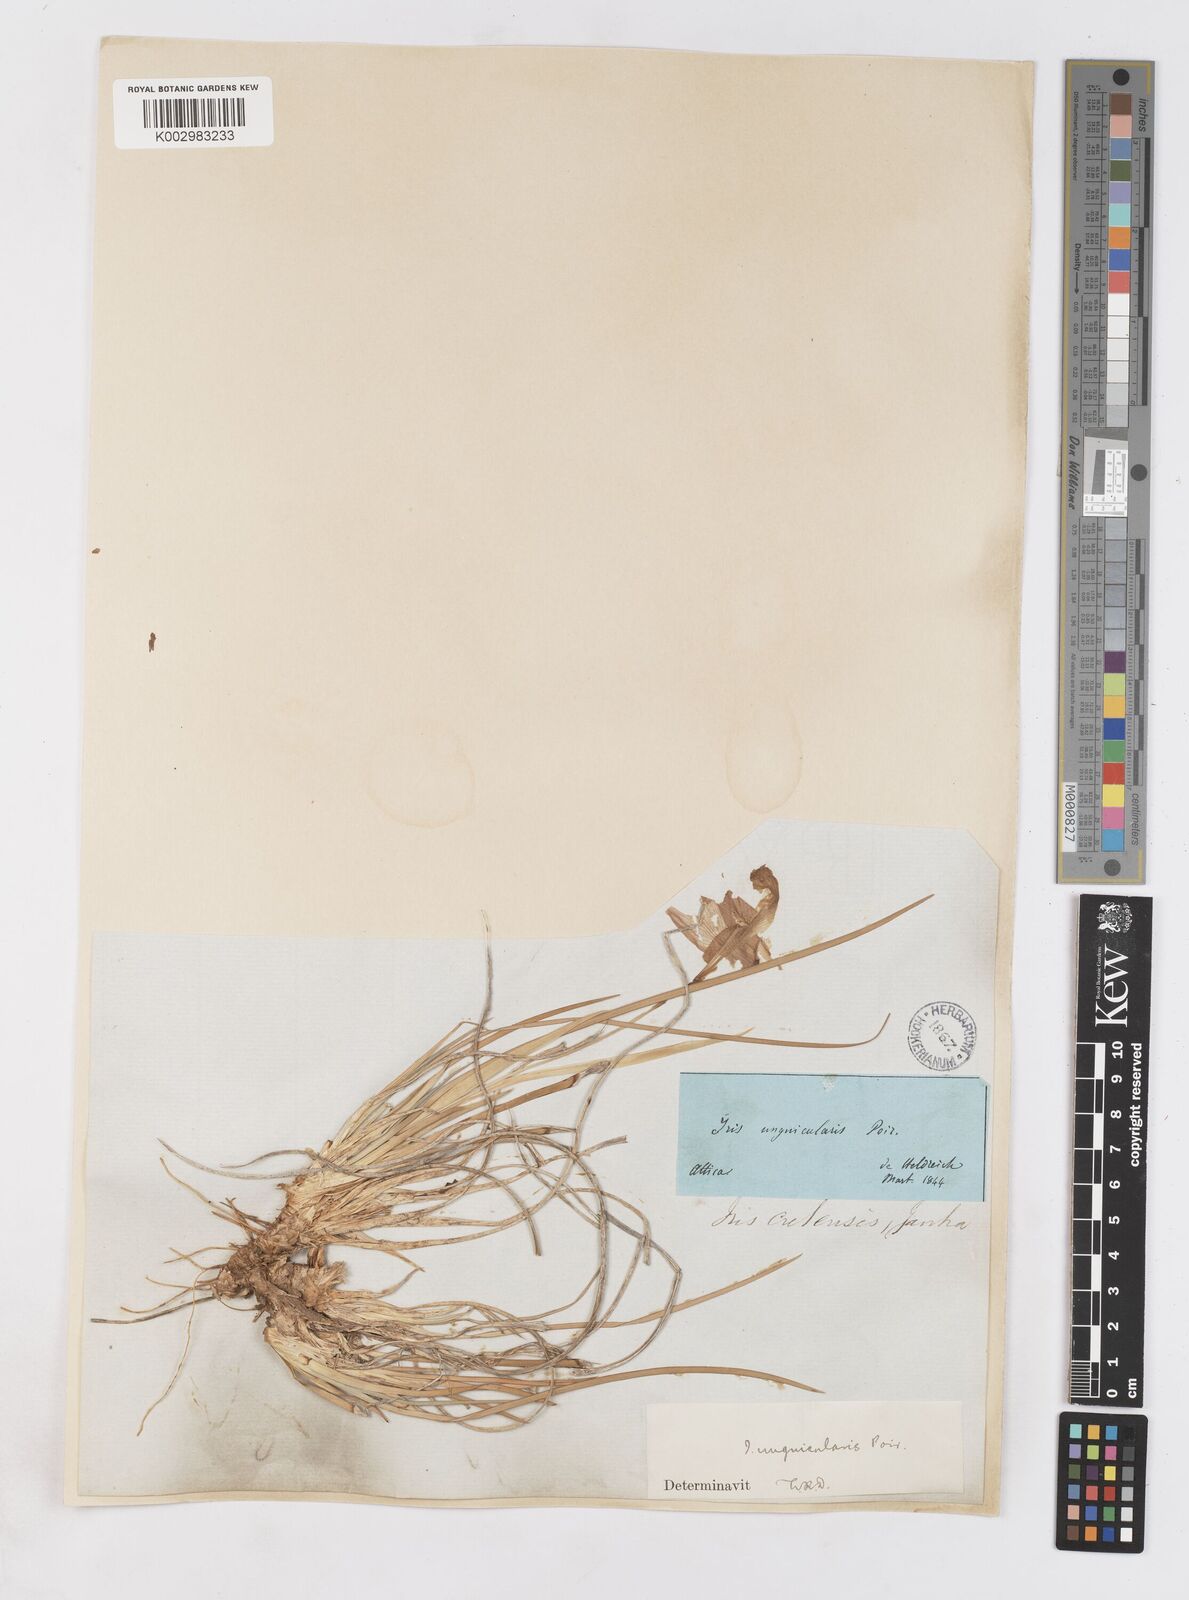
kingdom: Plantae
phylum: Tracheophyta
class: Liliopsida
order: Asparagales
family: Iridaceae
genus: Iris
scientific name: Iris unguicularis
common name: Algerian iris
